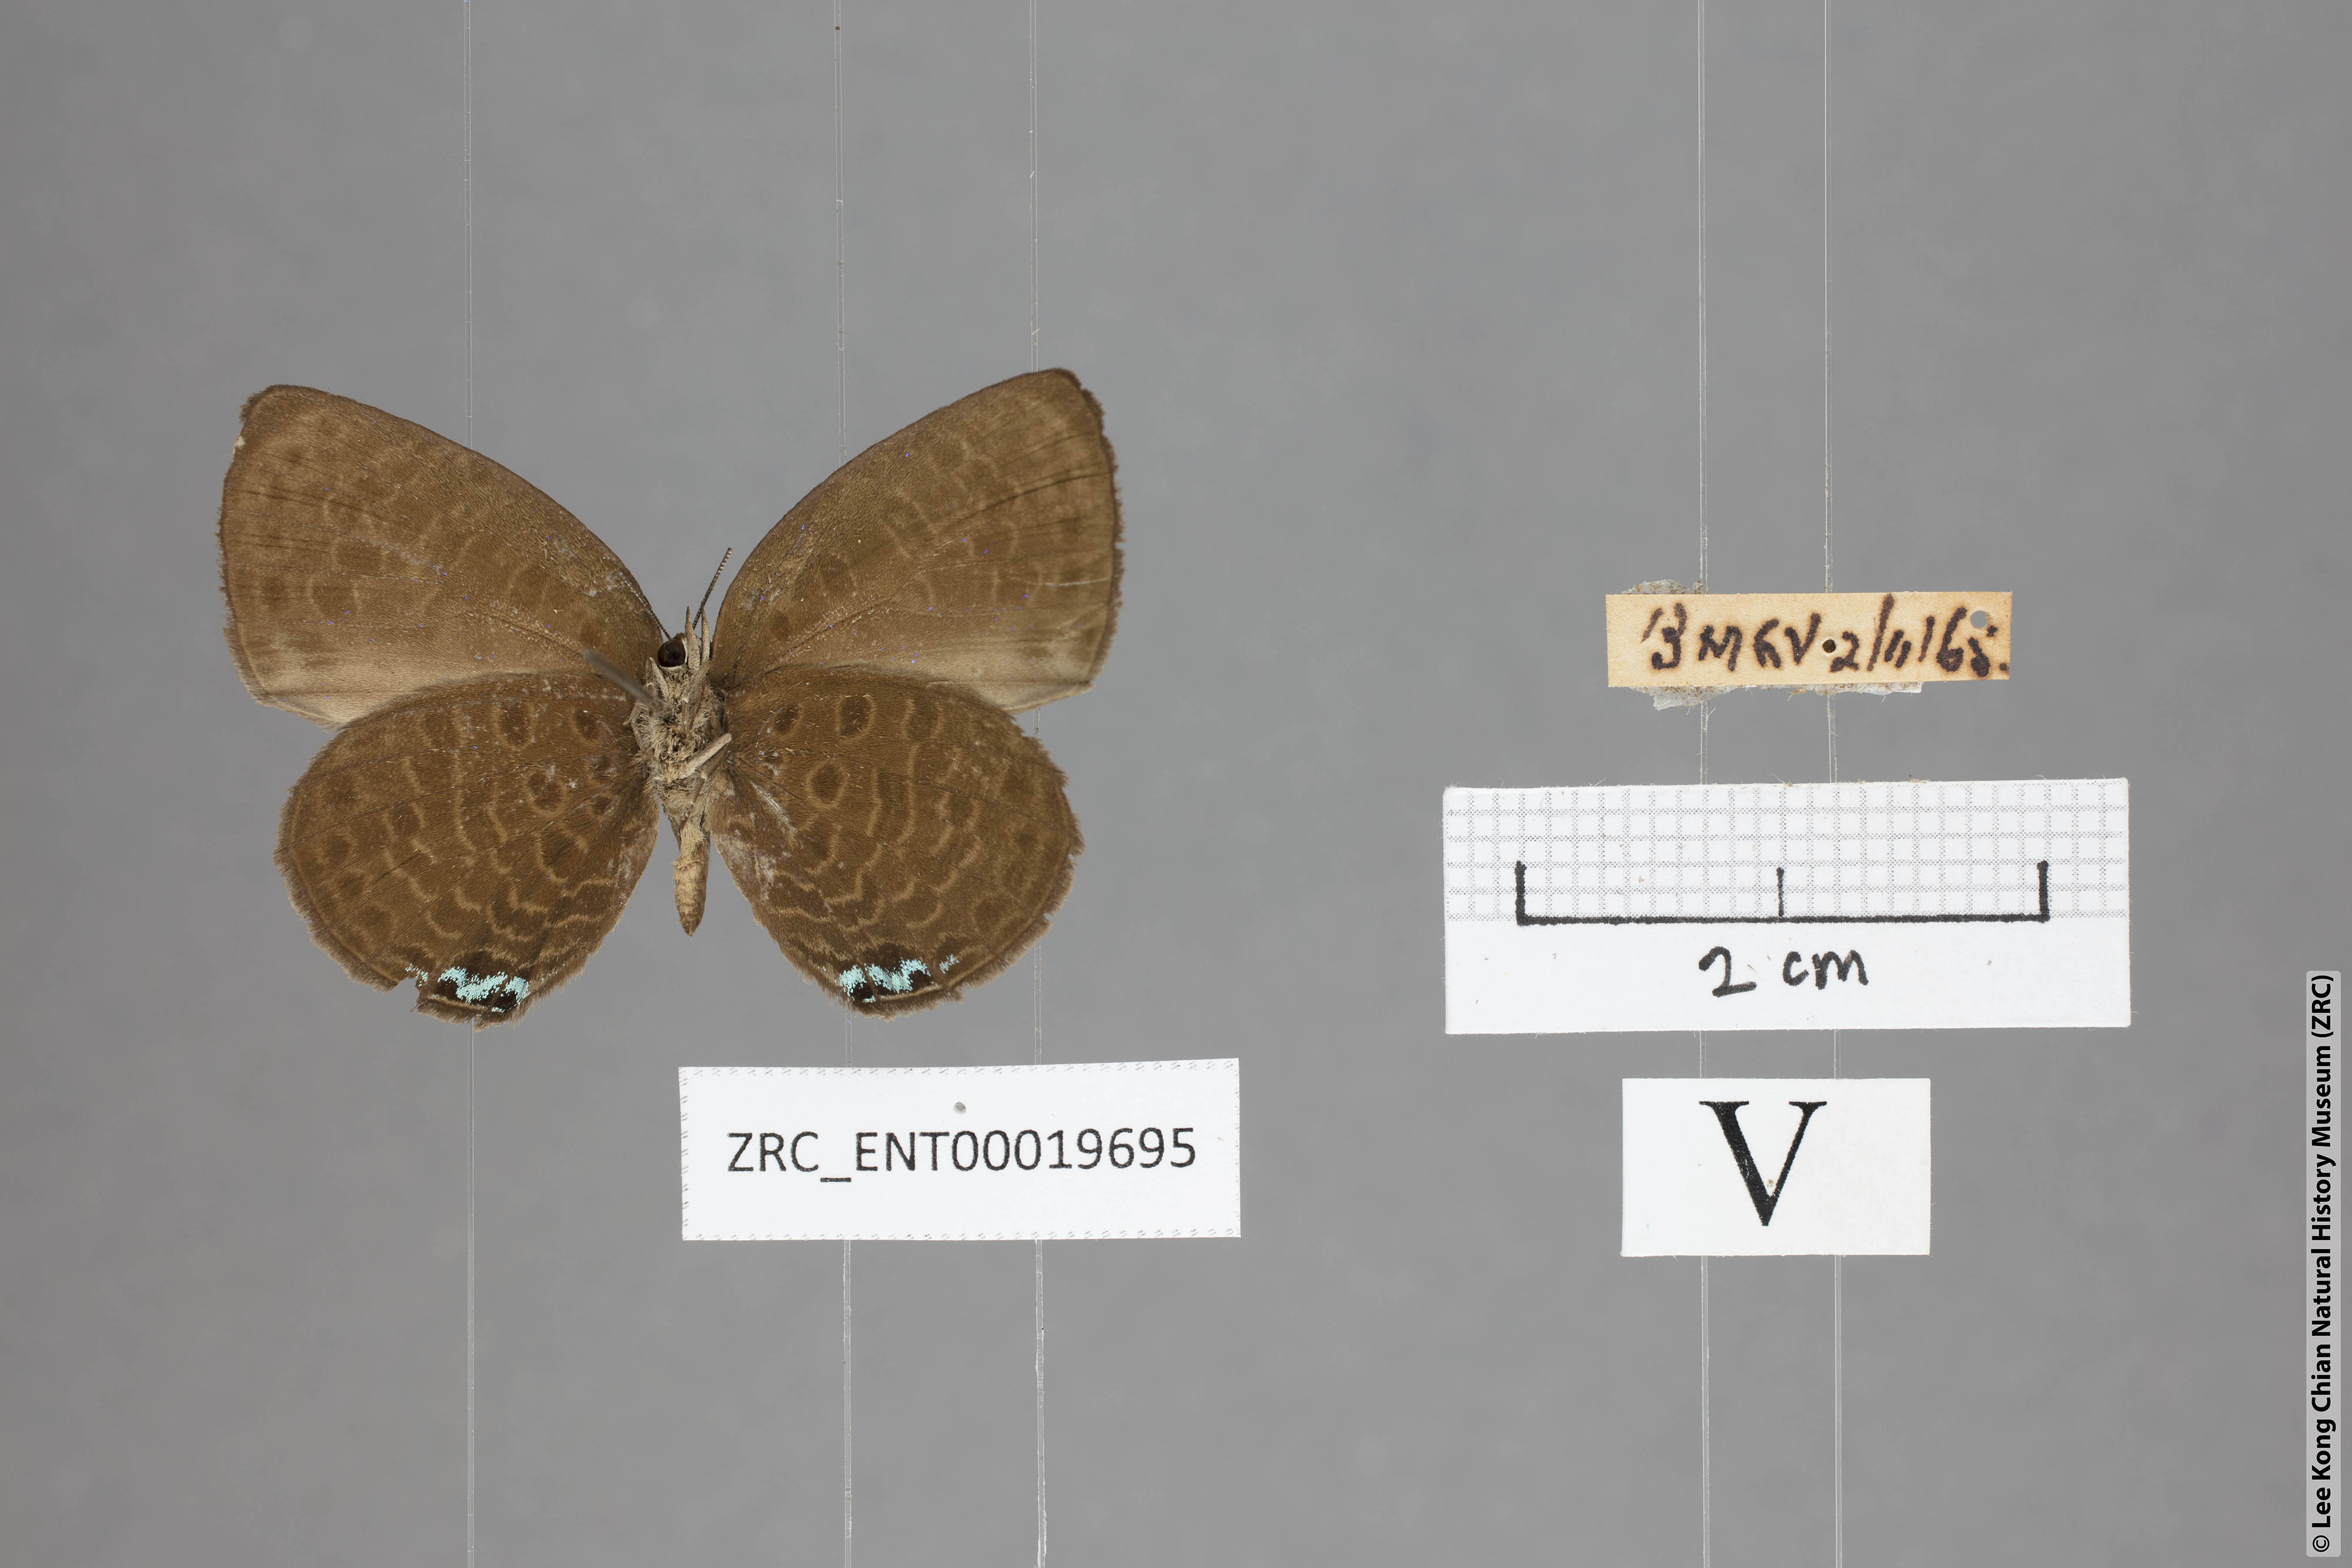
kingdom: Animalia
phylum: Arthropoda
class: Insecta
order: Lepidoptera
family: Lycaenidae
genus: Arhopala
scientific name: Arhopala muta
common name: Mutal oakblue
